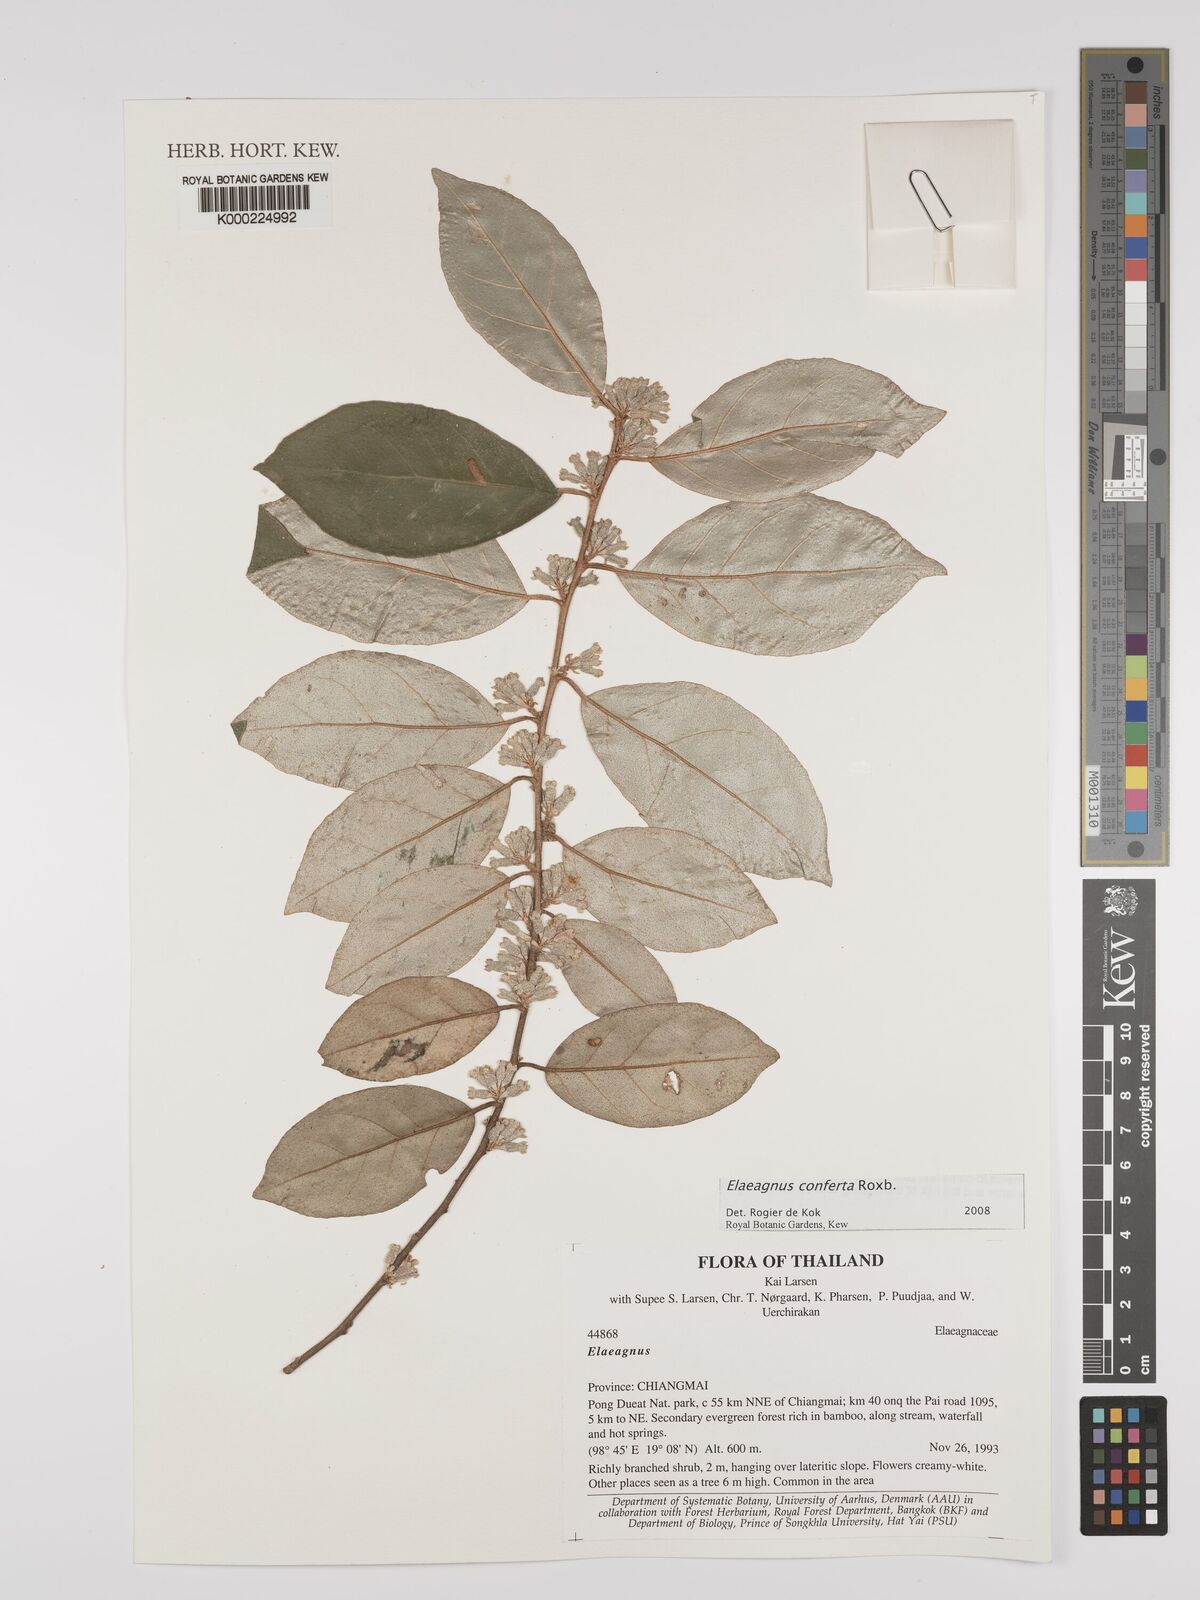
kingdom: Plantae
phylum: Tracheophyta
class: Magnoliopsida
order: Rosales
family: Elaeagnaceae
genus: Elaeagnus
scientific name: Elaeagnus conferta
